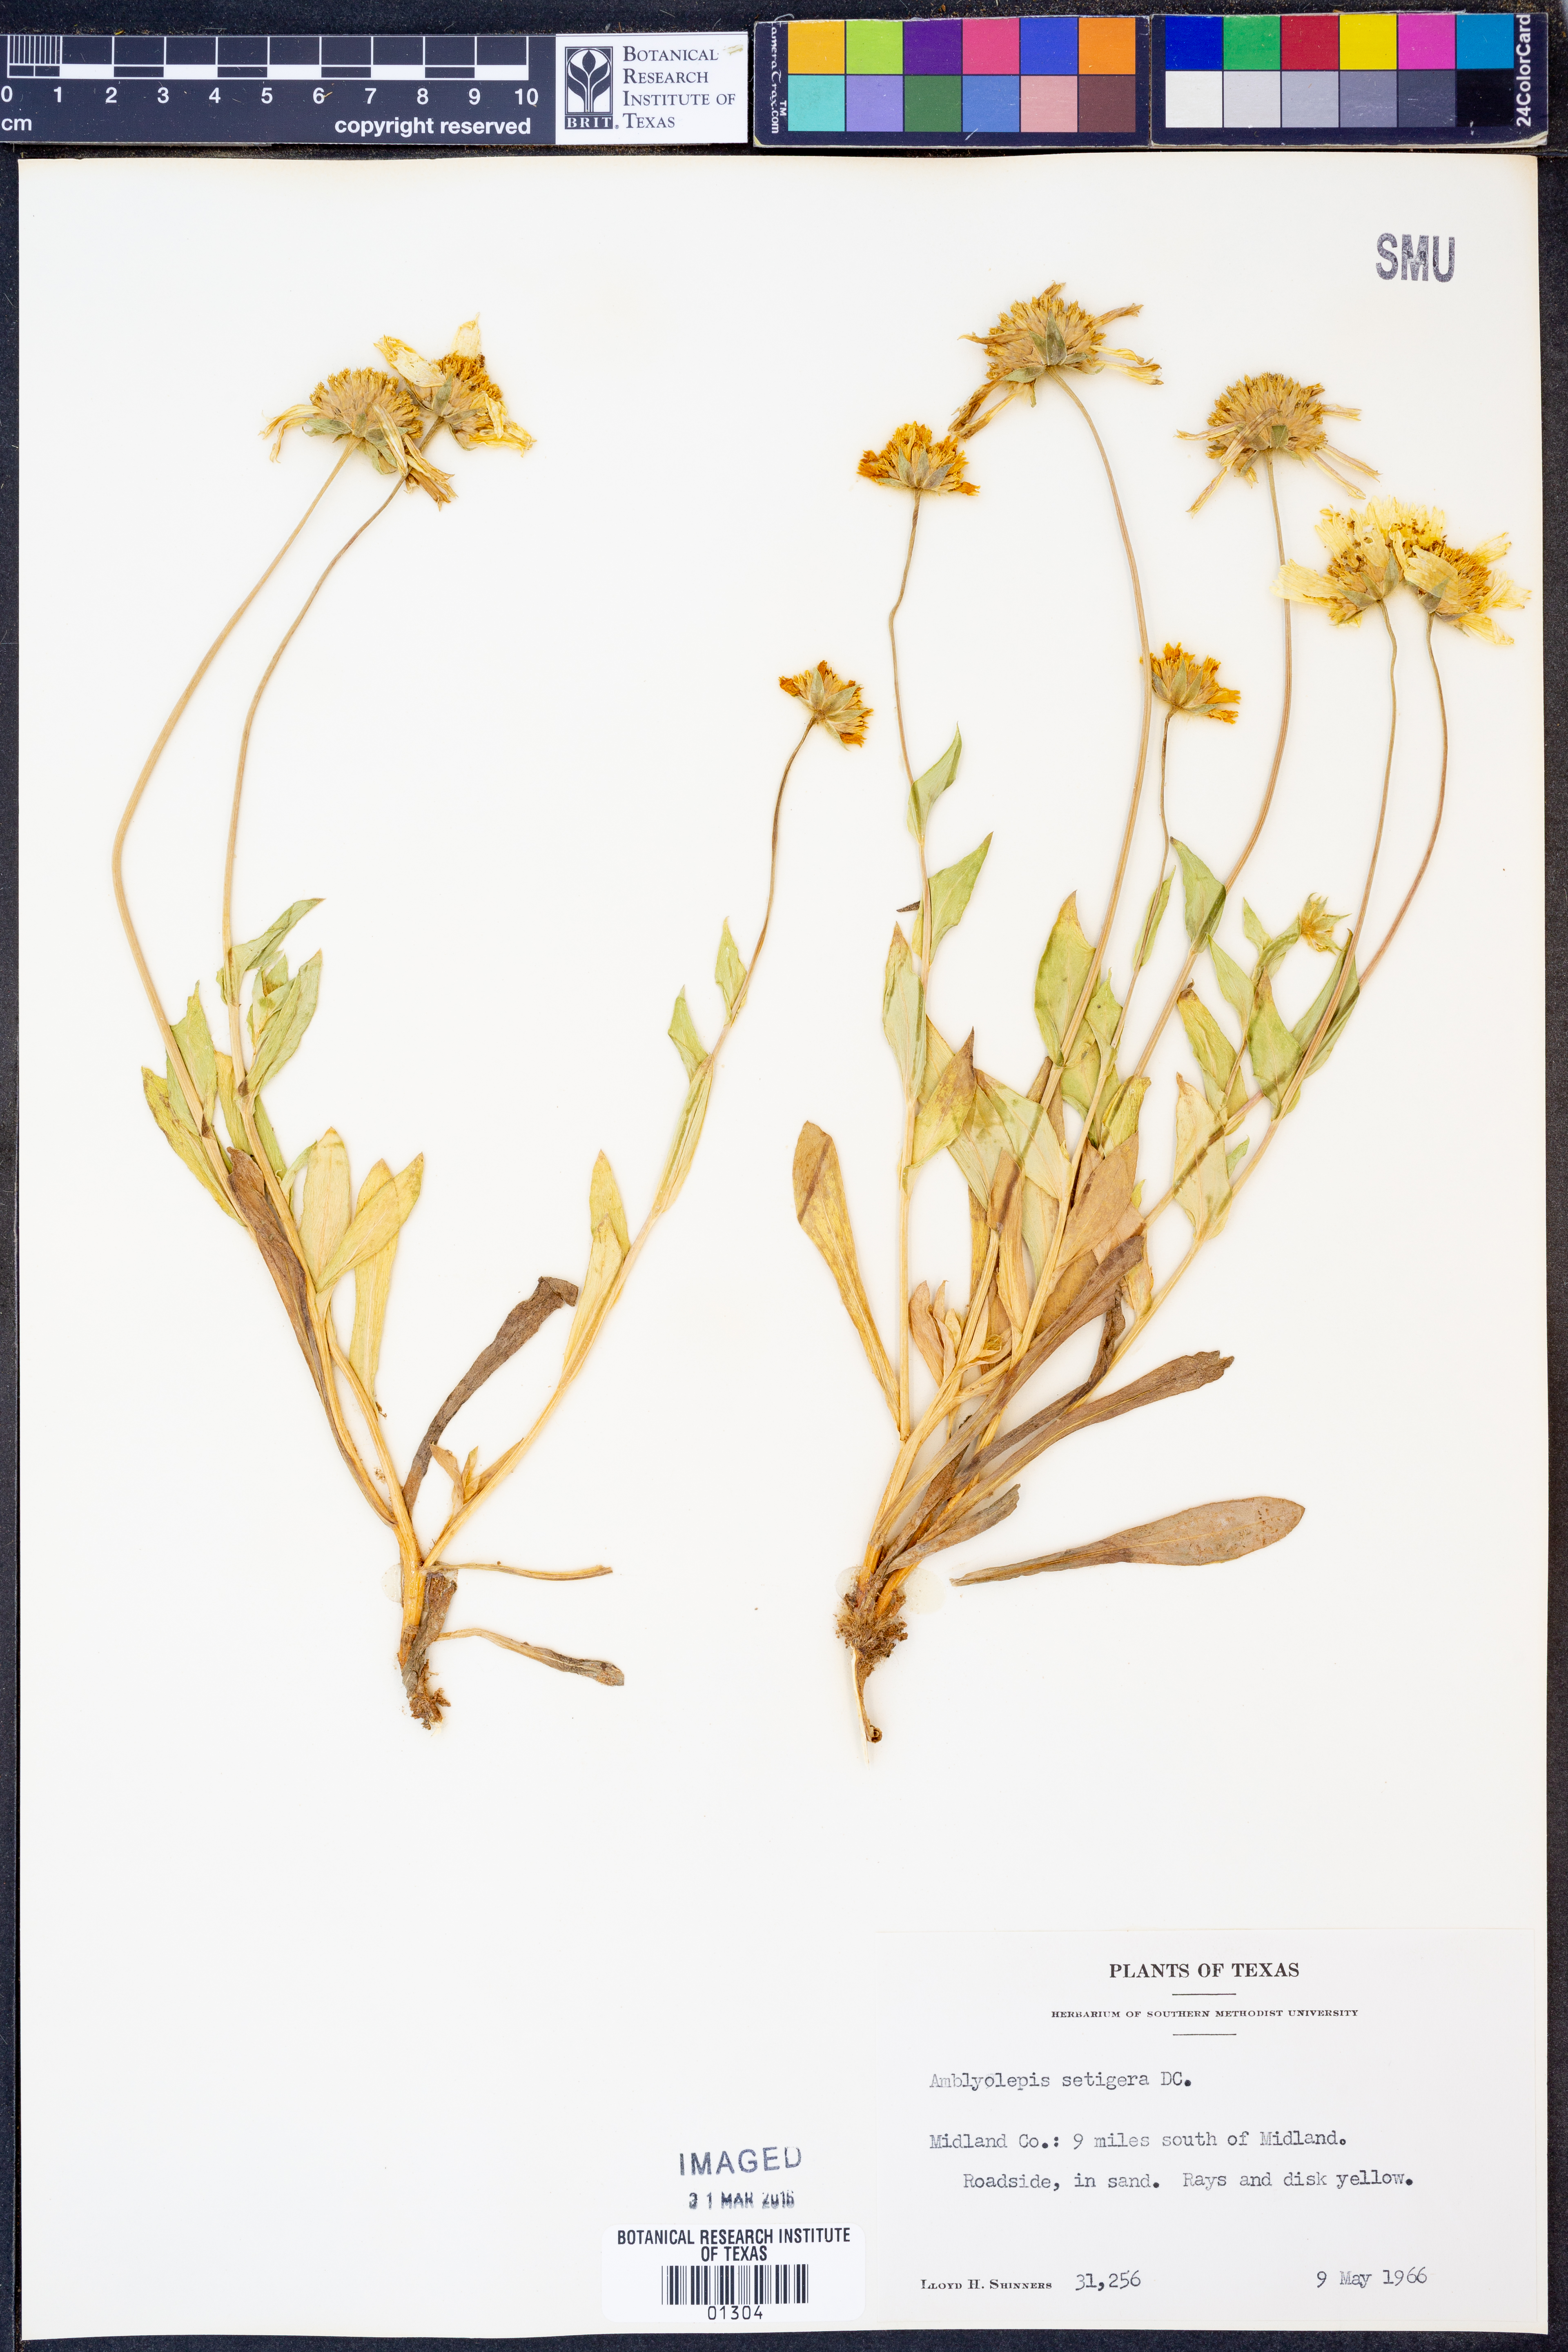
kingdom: Plantae
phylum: Tracheophyta
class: Magnoliopsida
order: Asterales
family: Asteraceae
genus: Amblyolepis
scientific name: Amblyolepis setigera
